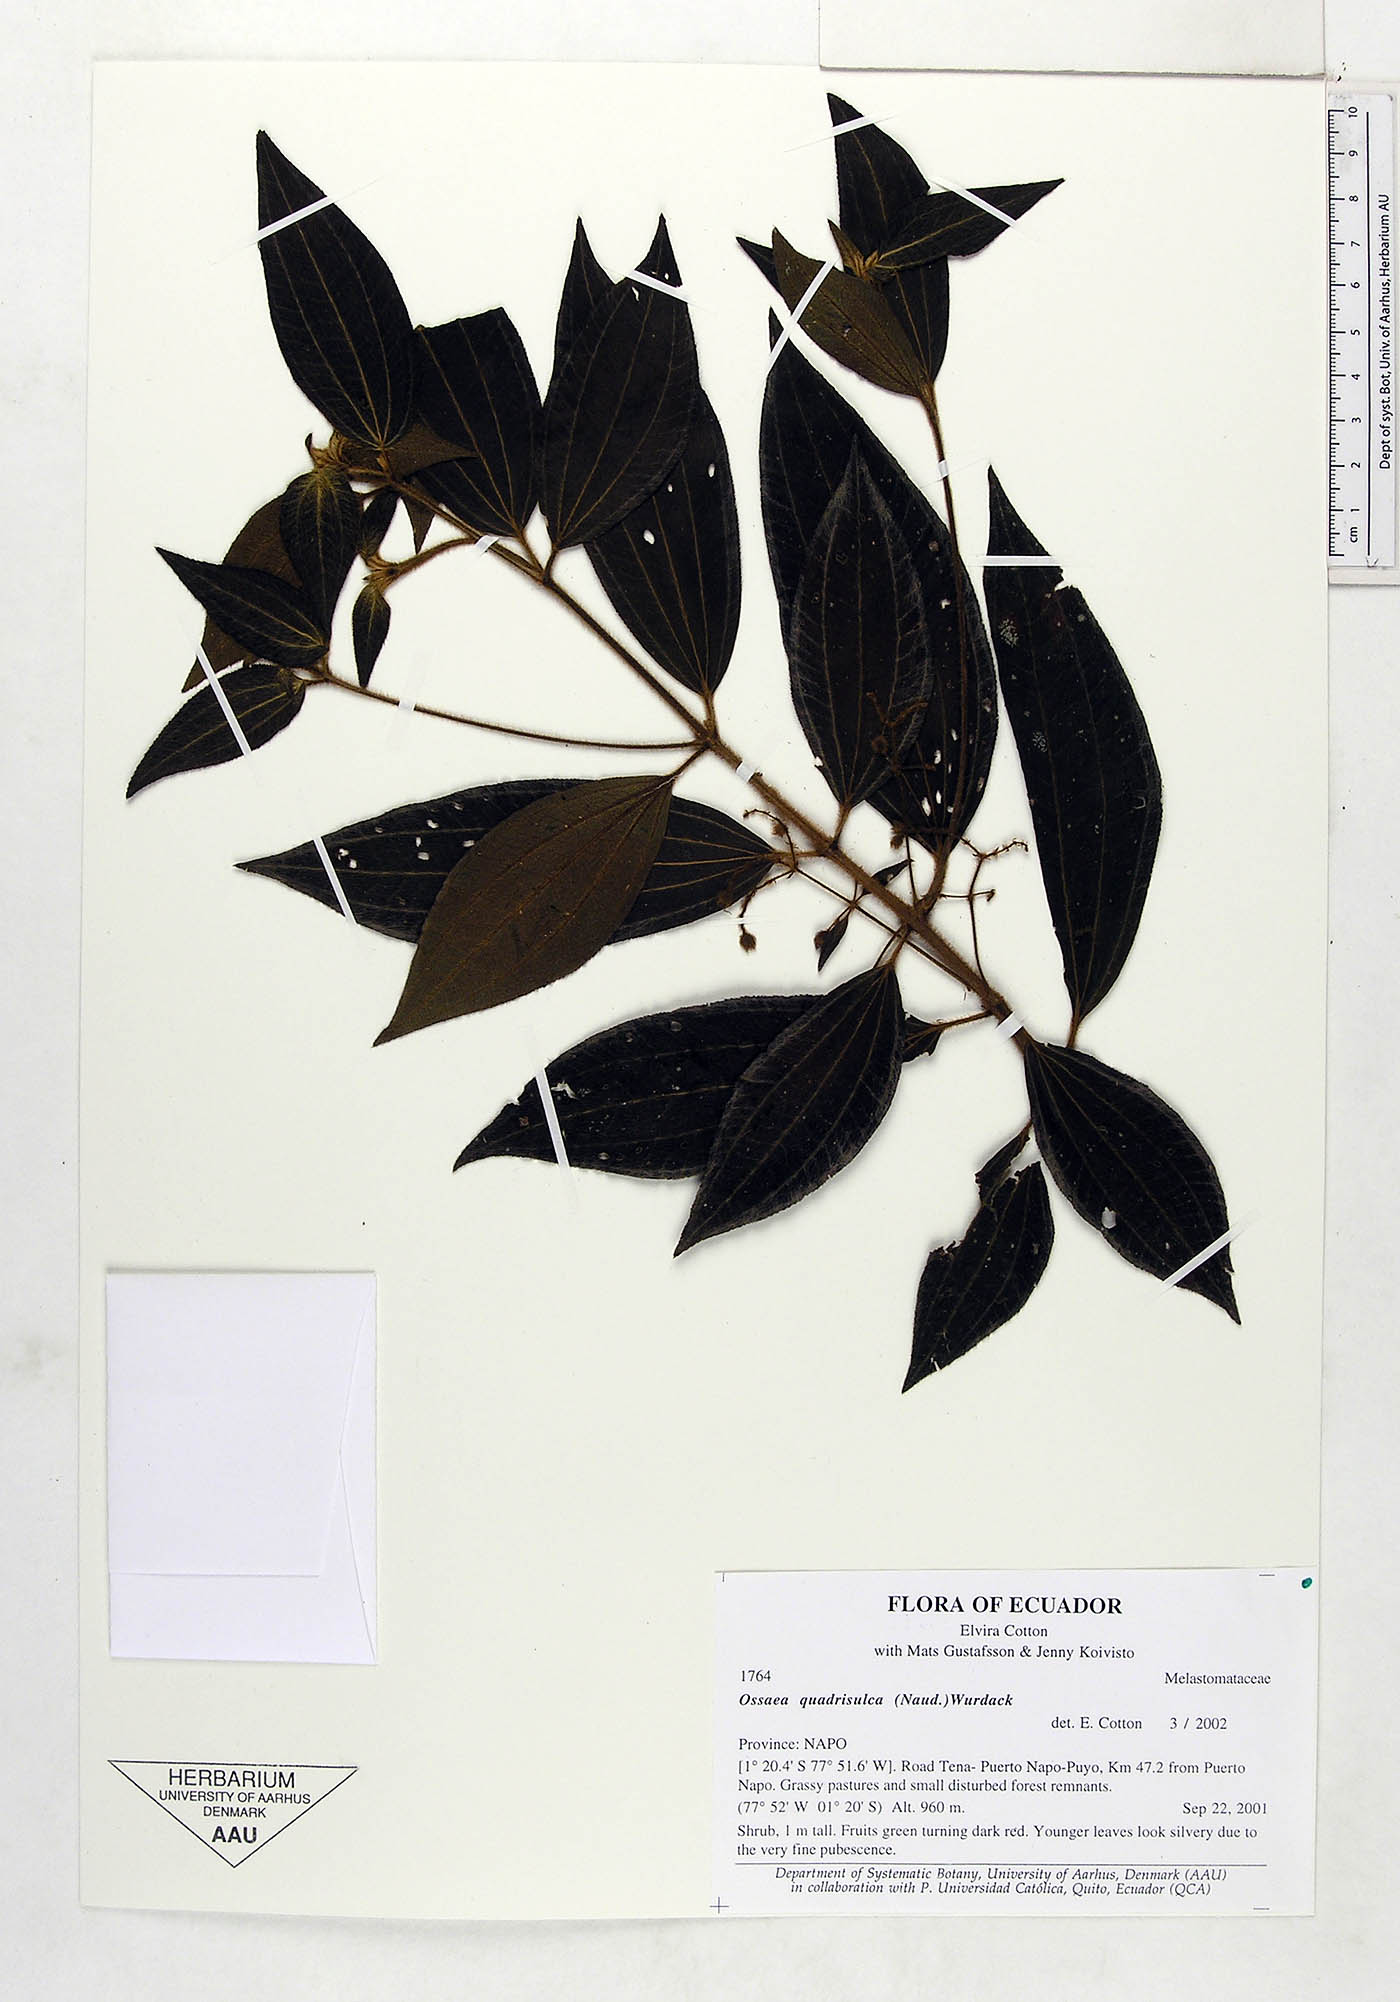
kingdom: Plantae
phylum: Tracheophyta
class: Magnoliopsida
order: Myrtales
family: Melastomataceae
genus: Miconia
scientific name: Miconia quadrisulca
